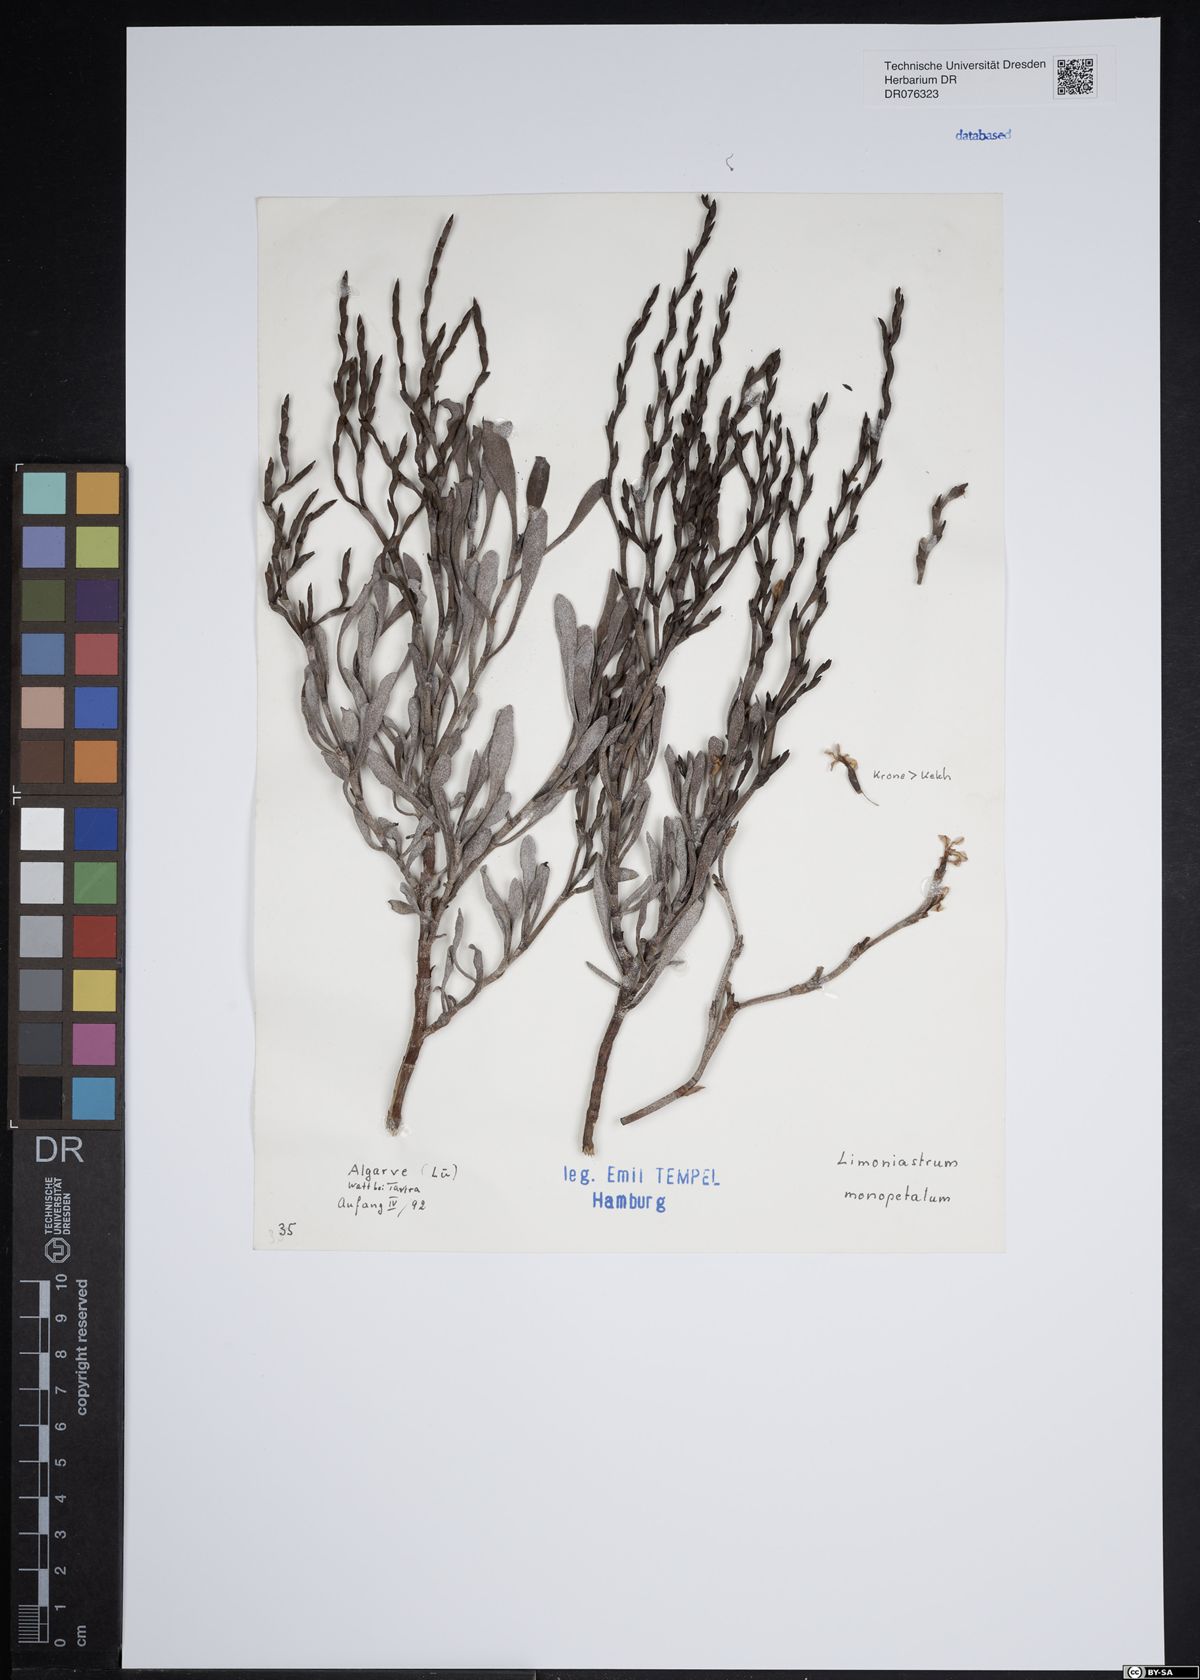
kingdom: Plantae
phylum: Tracheophyta
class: Magnoliopsida
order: Caryophyllales
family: Plumbaginaceae
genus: Limoniastrum
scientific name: Limoniastrum monopetalum
